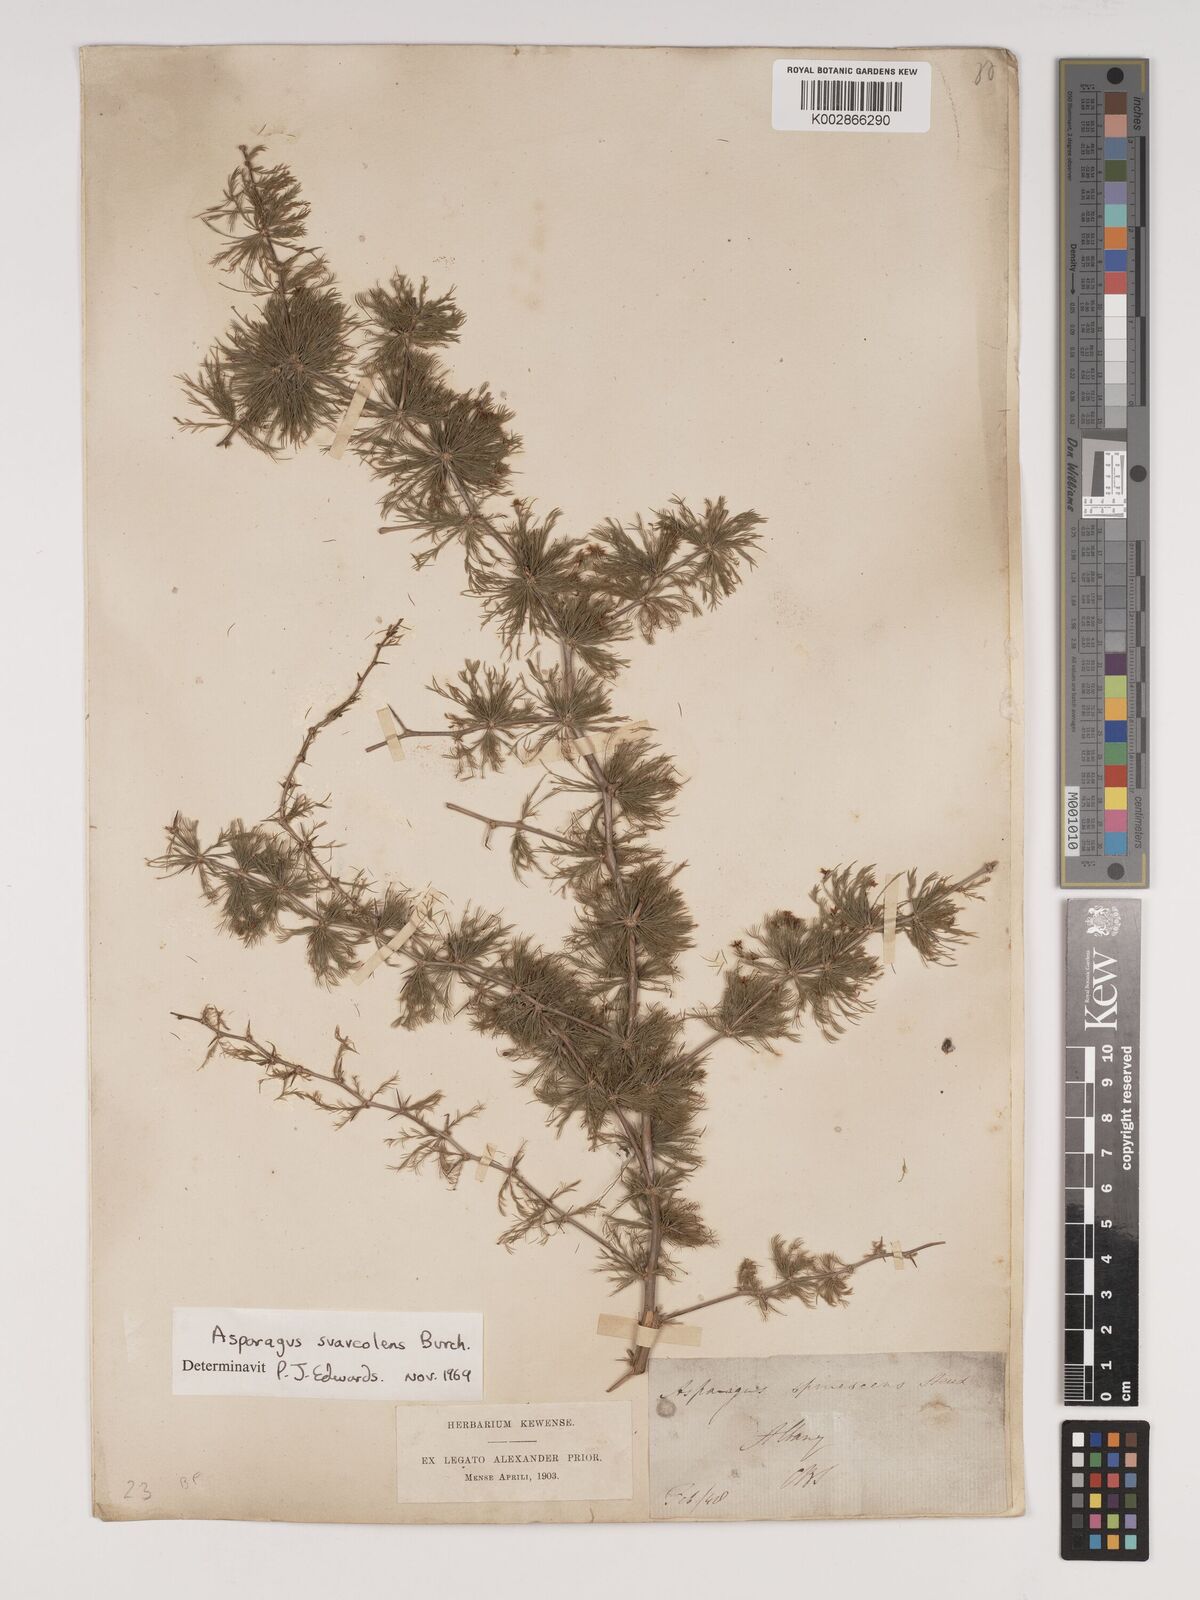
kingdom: Plantae
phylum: Tracheophyta
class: Liliopsida
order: Asparagales
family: Asparagaceae
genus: Asparagus
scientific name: Asparagus suaveolens
